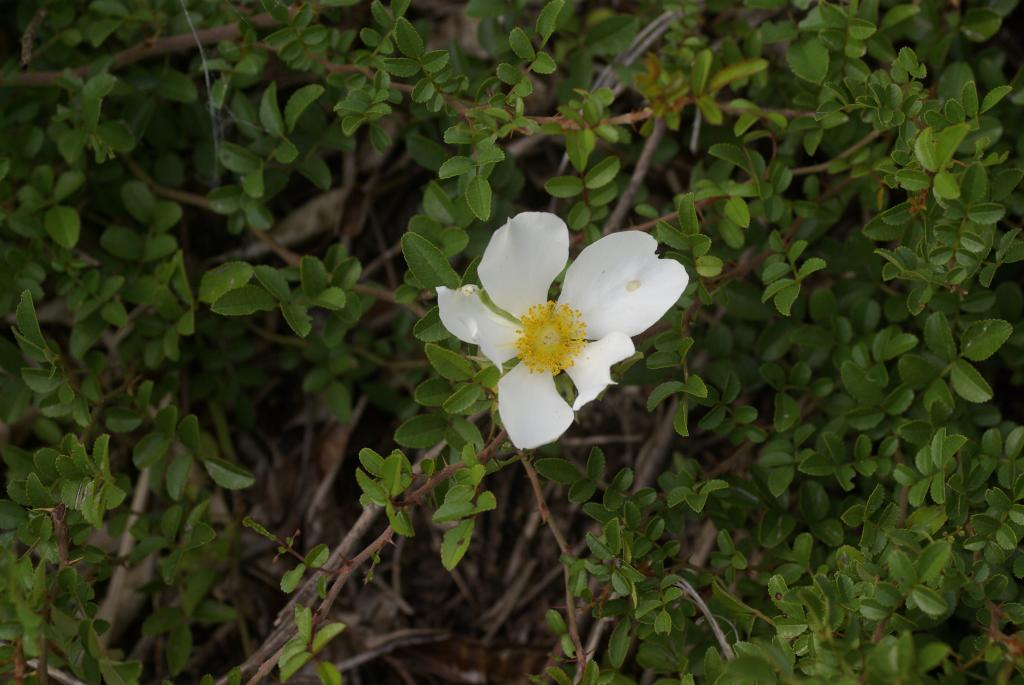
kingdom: Plantae
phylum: Tracheophyta
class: Magnoliopsida
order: Rosales
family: Rosaceae
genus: Rosa
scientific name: Rosa bracteata
